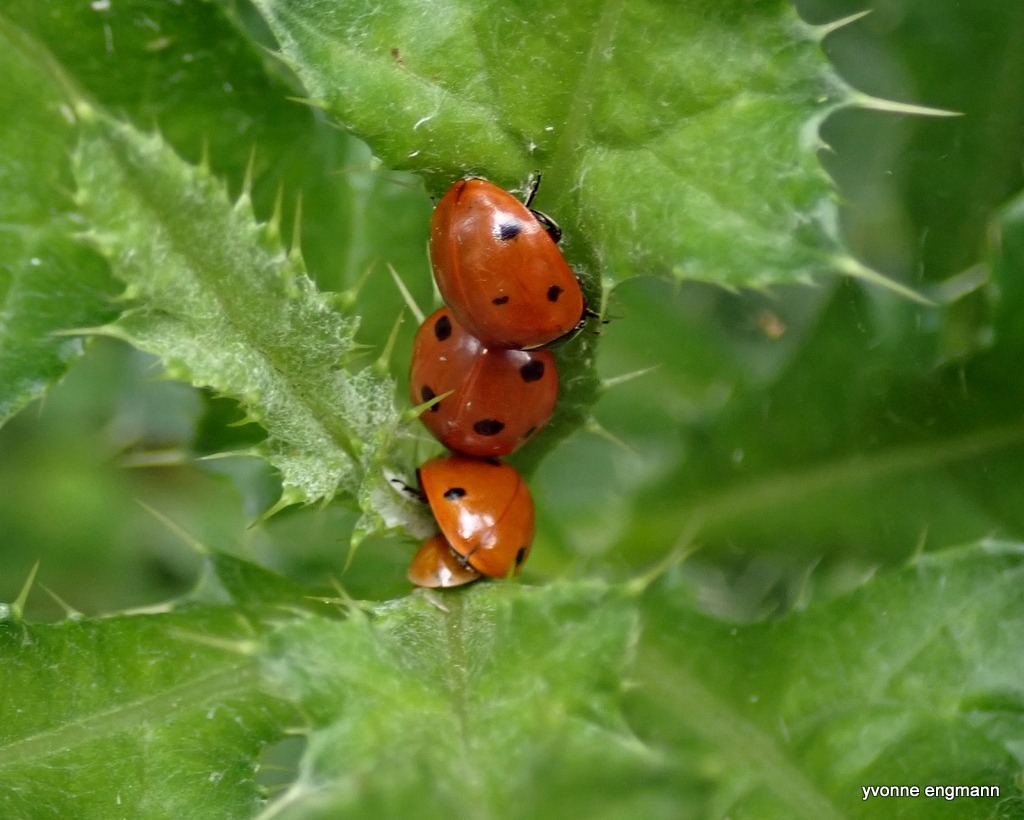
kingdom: Animalia
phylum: Arthropoda
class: Insecta
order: Coleoptera
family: Coccinellidae
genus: Coccinella
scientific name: Coccinella septempunctata
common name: Syvplettet mariehøne
